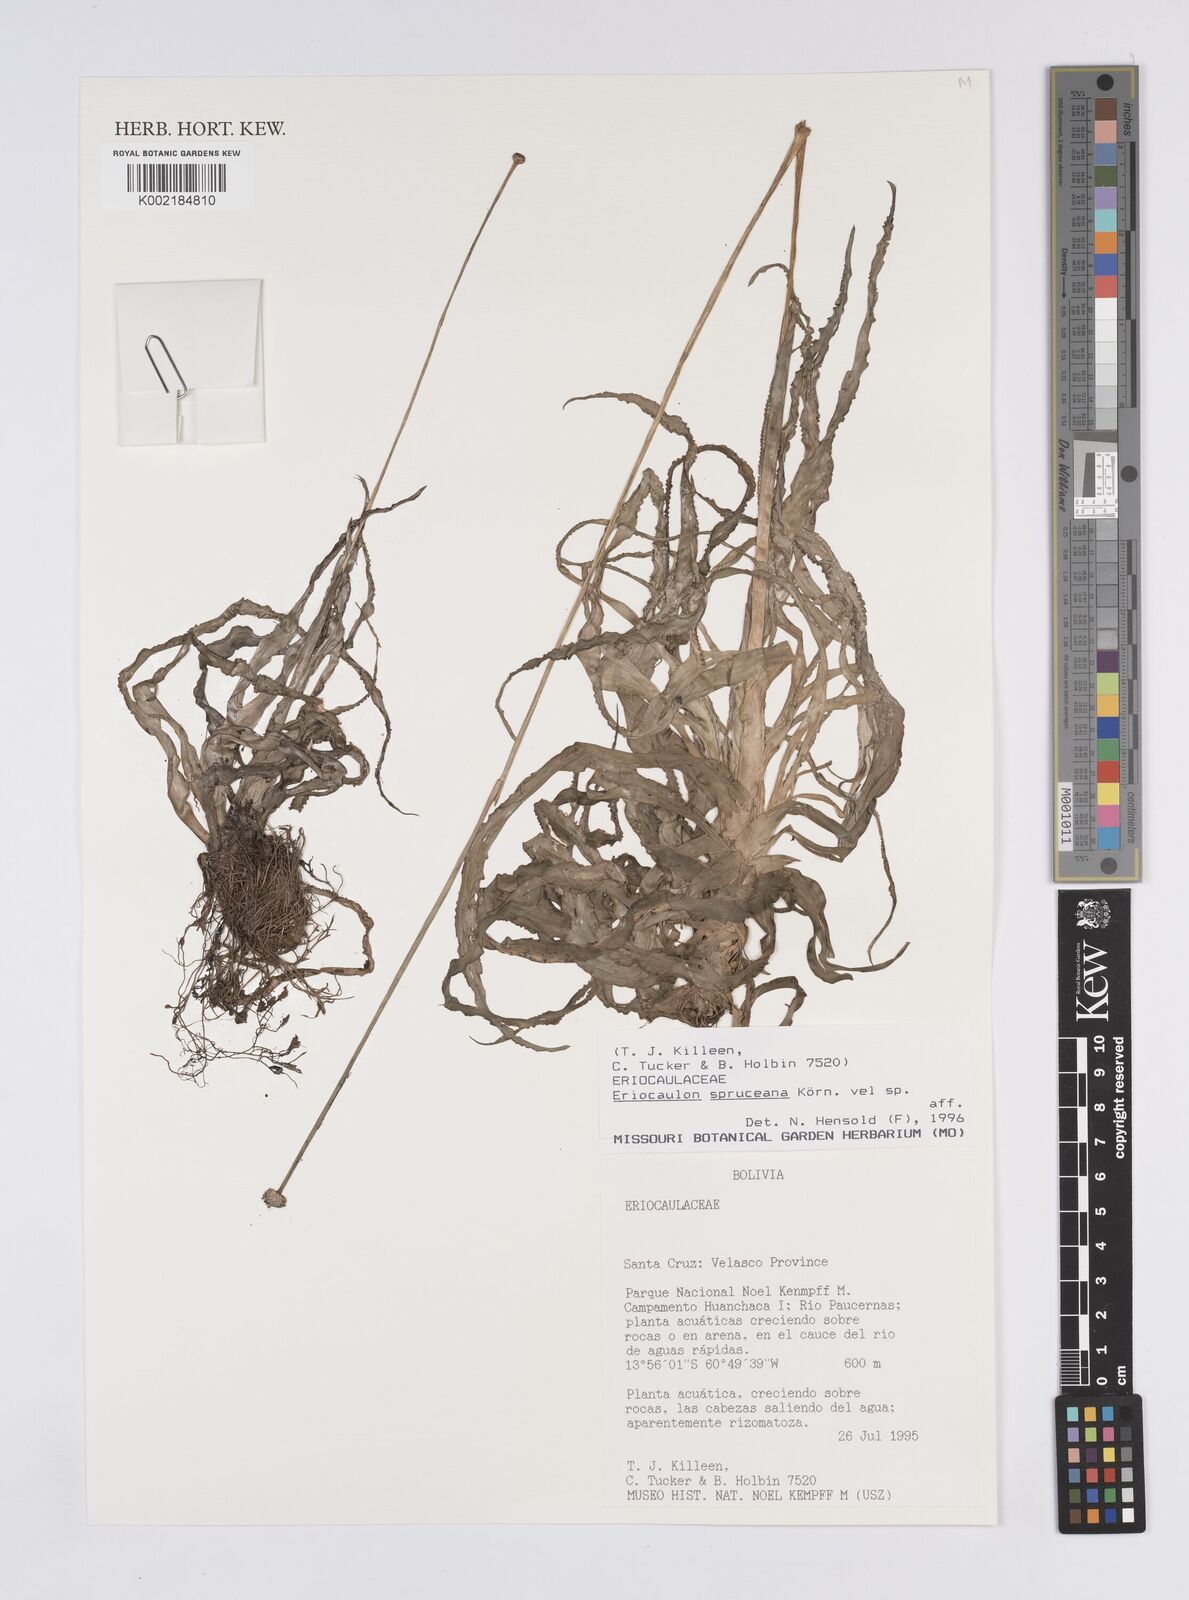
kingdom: Plantae
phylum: Tracheophyta
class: Liliopsida
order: Poales
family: Eriocaulaceae
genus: Eriocaulon
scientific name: Eriocaulon spruceanum
